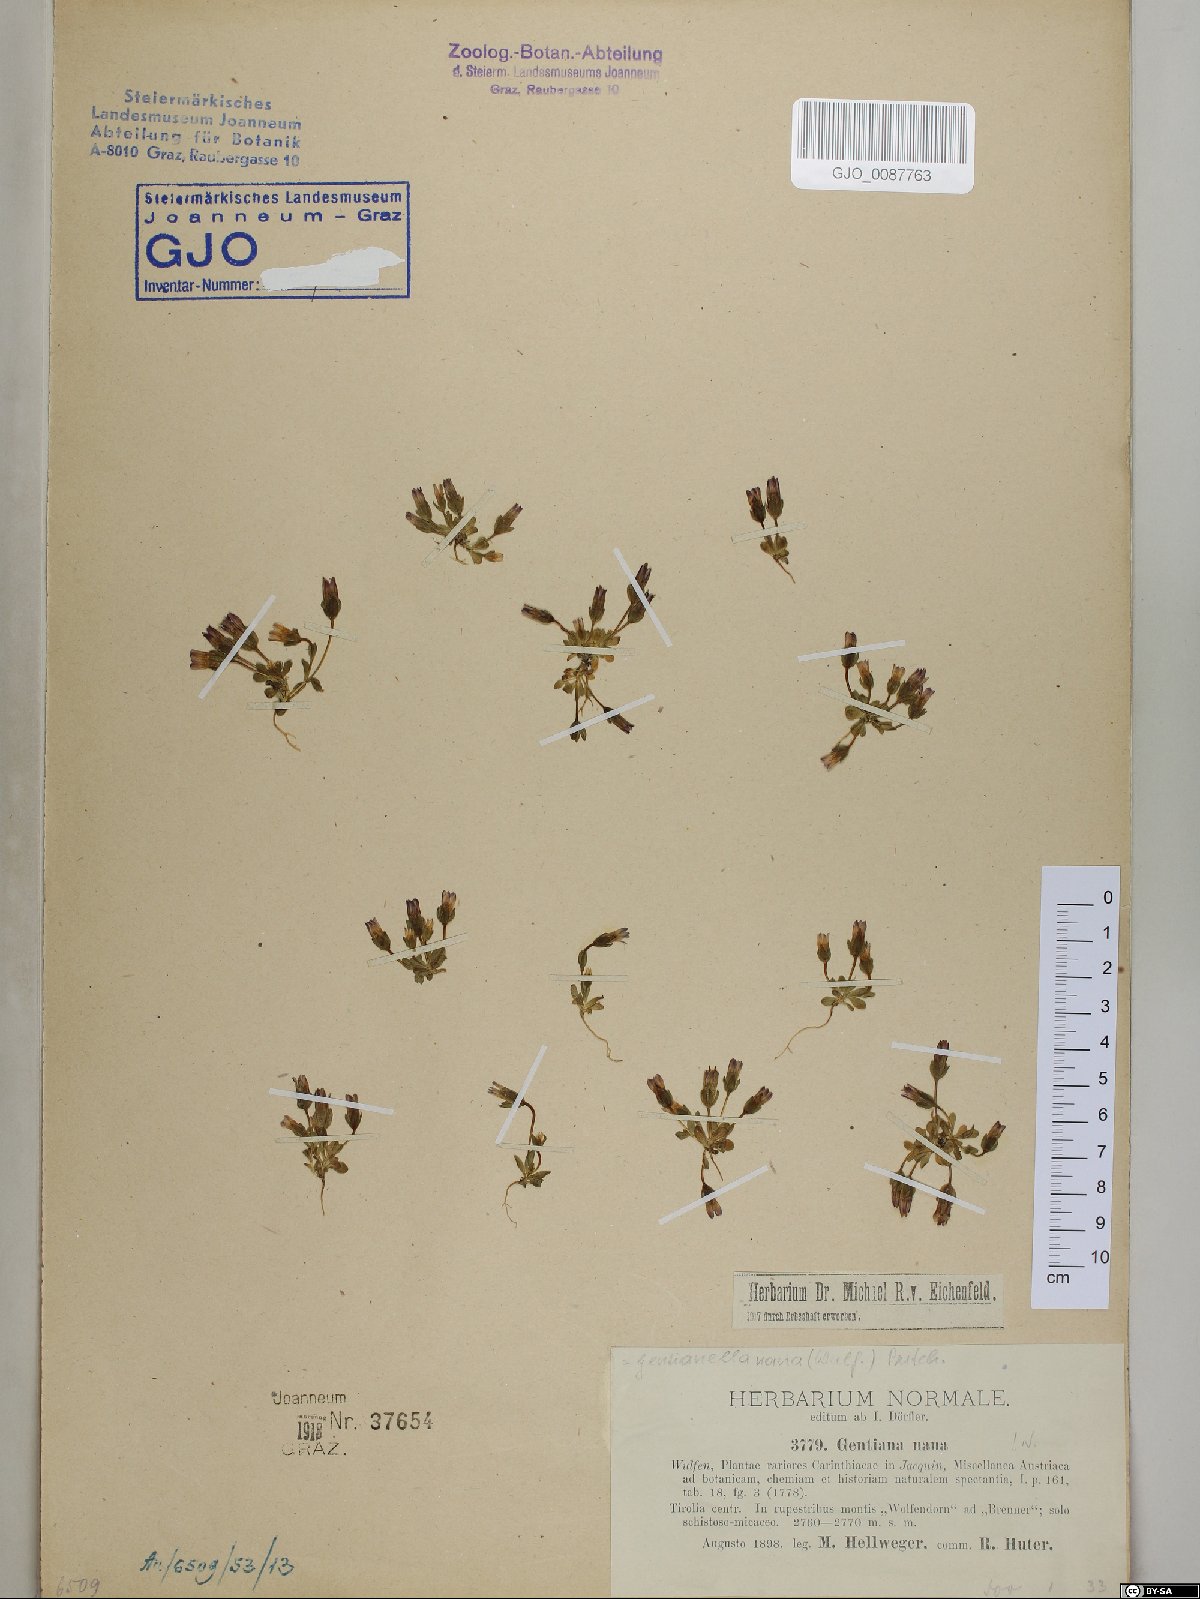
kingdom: Plantae
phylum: Tracheophyta
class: Magnoliopsida
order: Gentianales
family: Gentianaceae
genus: Comastoma
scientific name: Comastoma nanum
